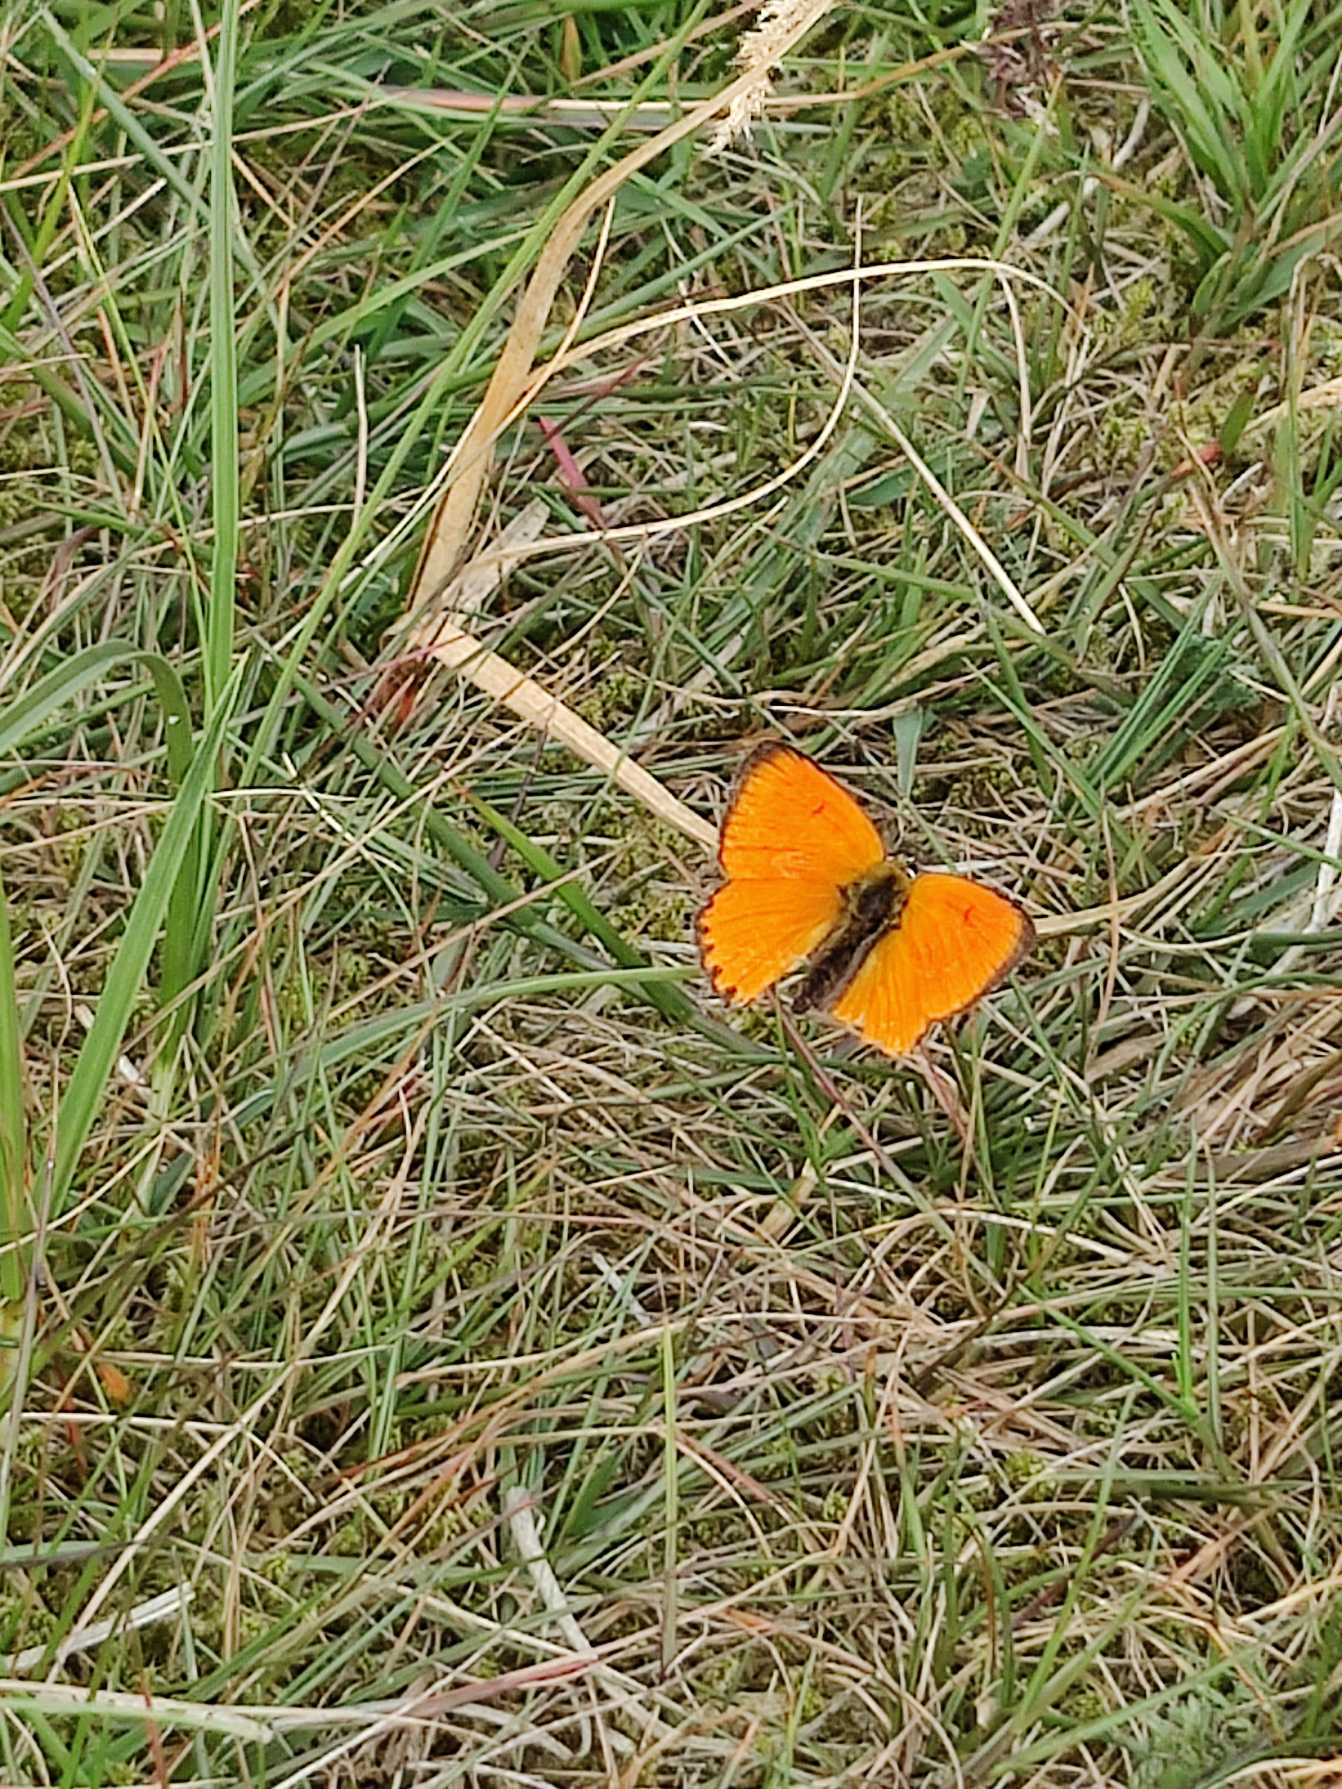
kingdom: Animalia
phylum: Arthropoda
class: Insecta
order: Lepidoptera
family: Lycaenidae
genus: Lycaena
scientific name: Lycaena virgaureae
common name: Dukatsommerfugl
